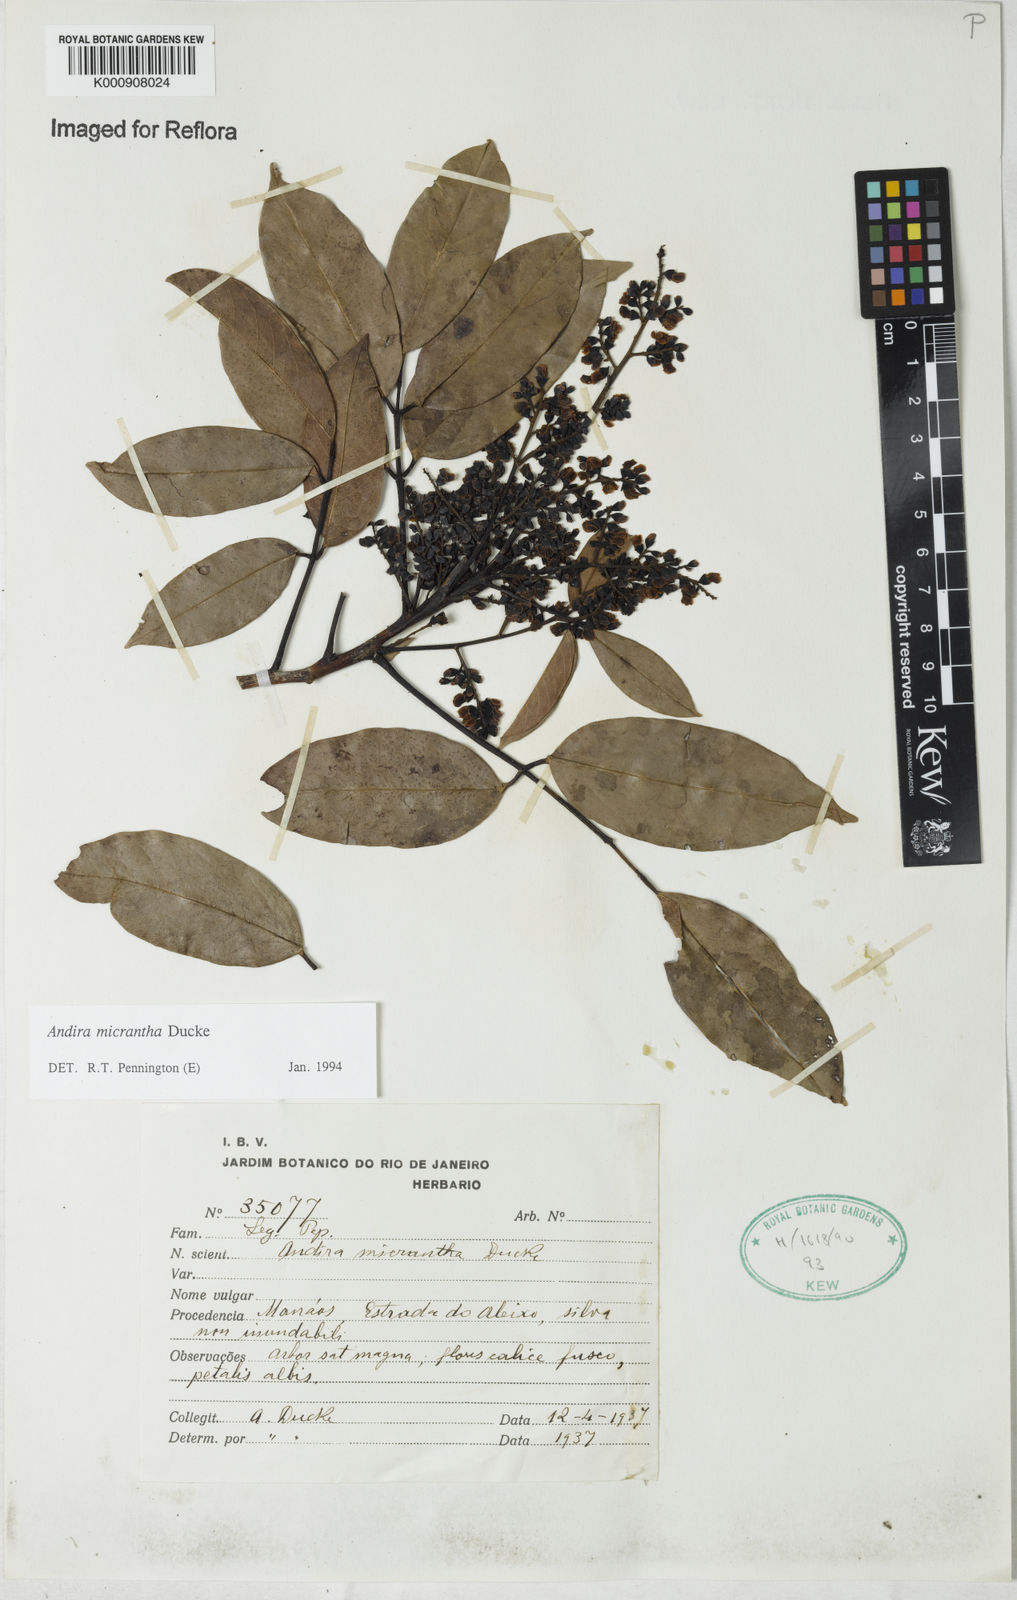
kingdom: Plantae
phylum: Tracheophyta
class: Magnoliopsida
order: Fabales
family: Fabaceae
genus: Andira
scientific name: Andira micrantha
